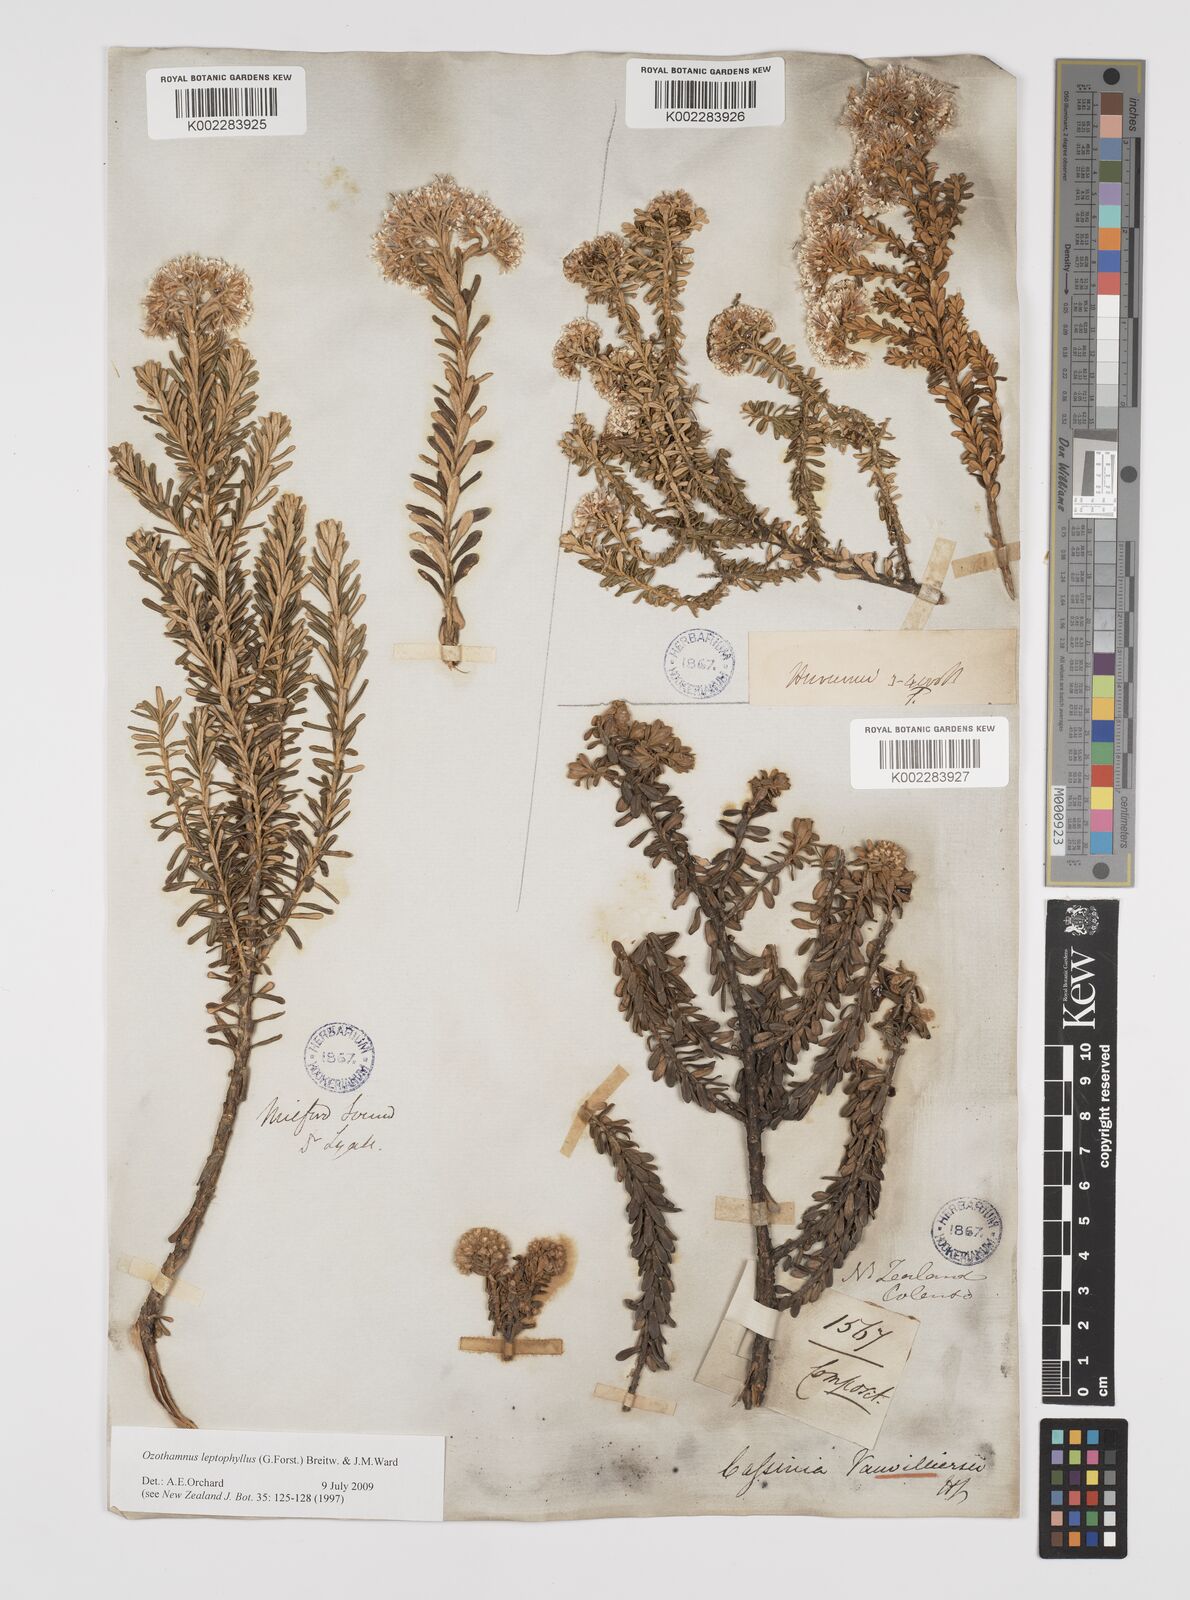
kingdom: Plantae
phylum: Tracheophyta
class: Magnoliopsida
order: Asterales
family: Asteraceae
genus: Ozothamnus
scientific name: Ozothamnus leptophyllus
